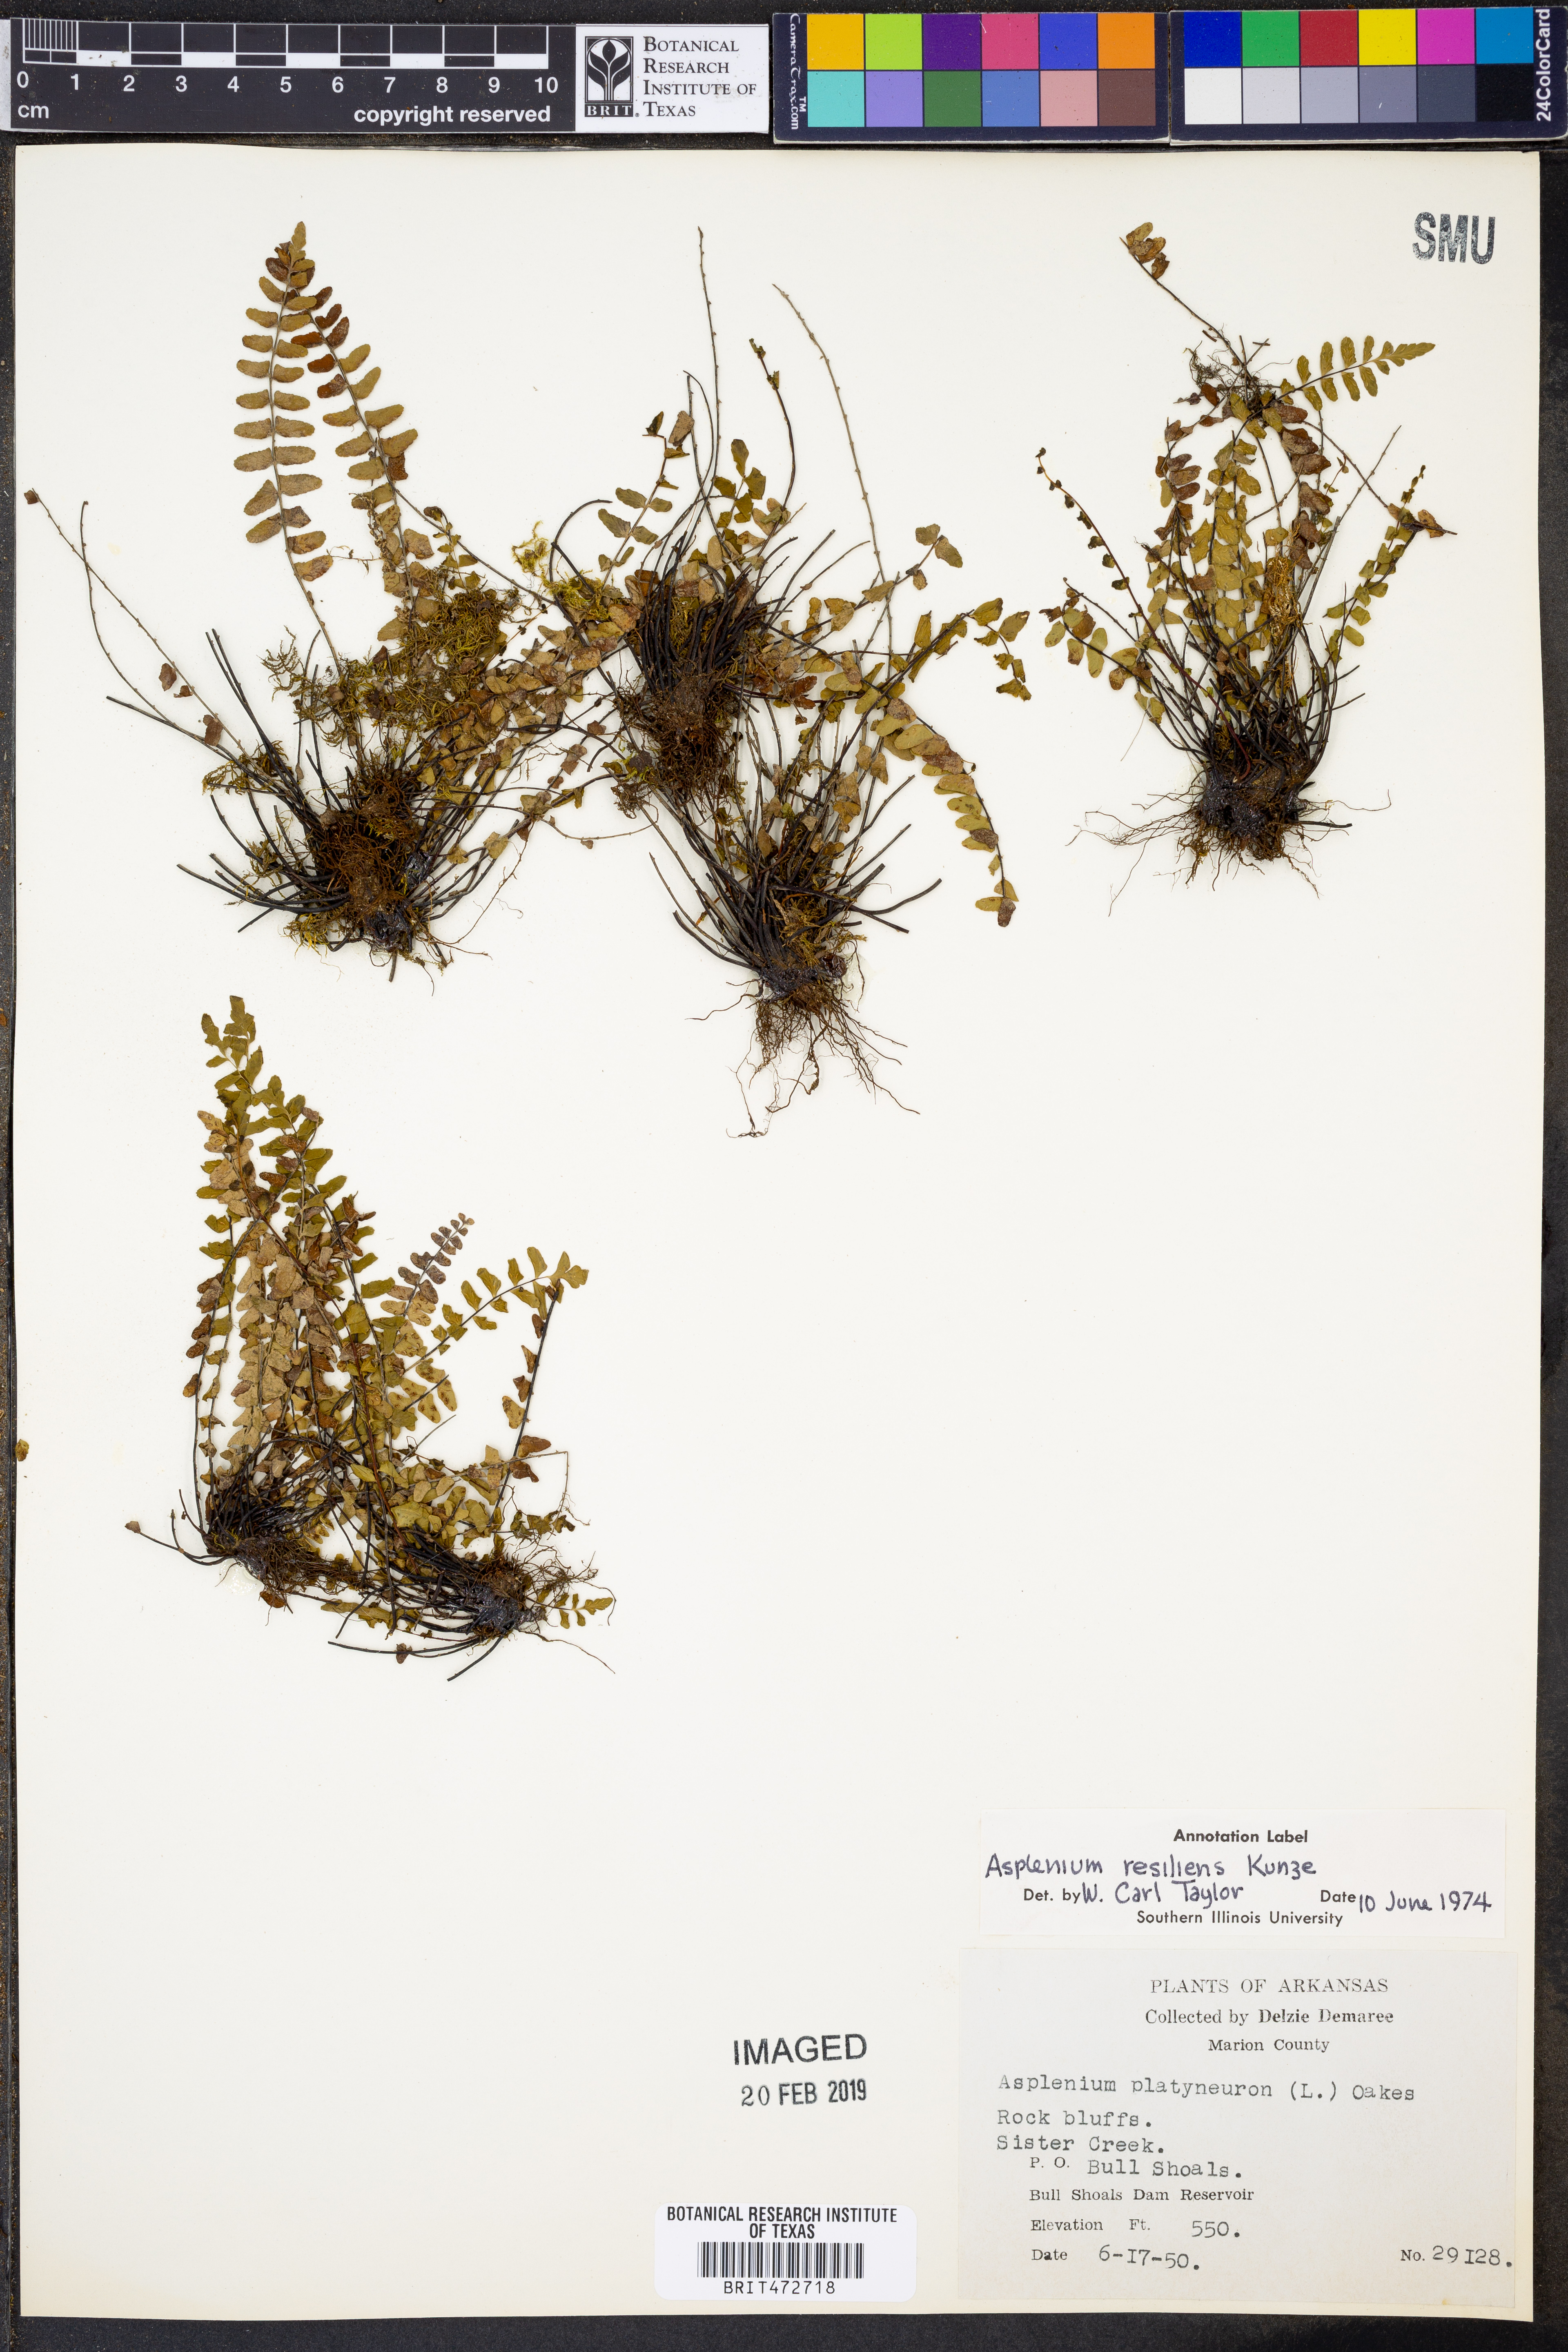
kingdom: Plantae
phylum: Tracheophyta
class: Polypodiopsida
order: Polypodiales
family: Aspleniaceae
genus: Asplenium
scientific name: Asplenium resiliens
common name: Blackstem spleenwort
